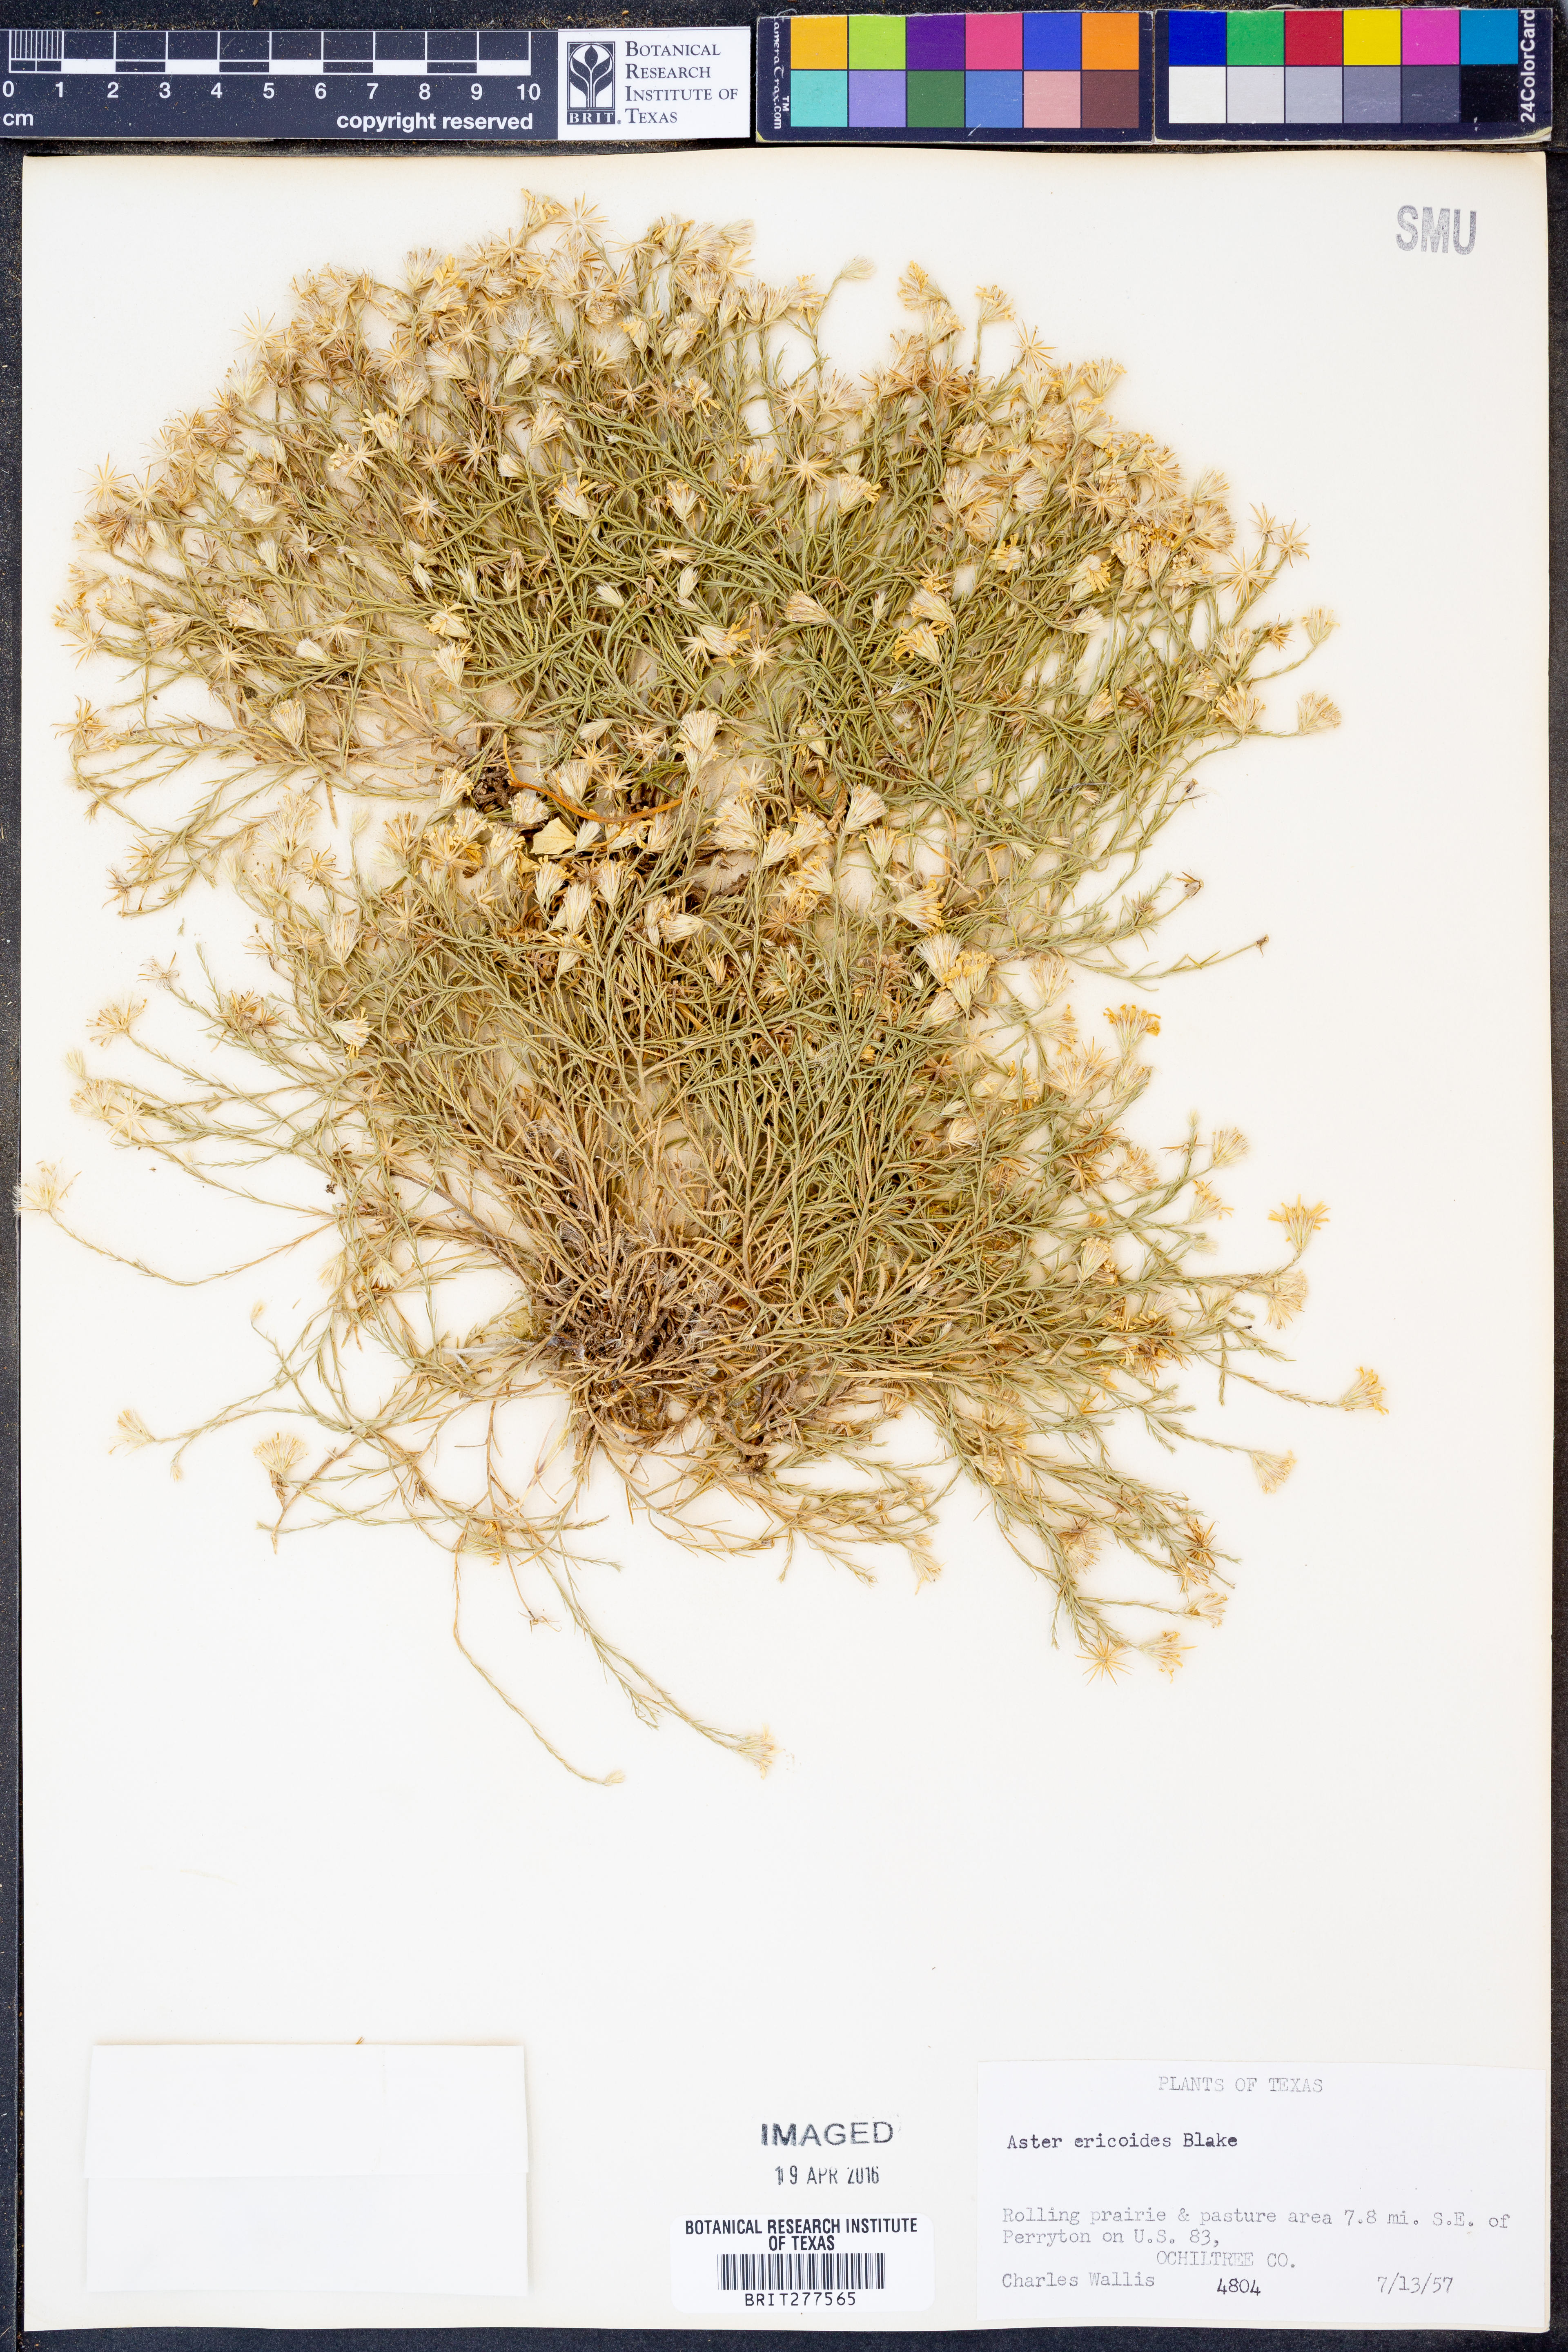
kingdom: Plantae
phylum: Tracheophyta
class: Magnoliopsida
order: Asterales
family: Asteraceae
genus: Symphyotrichum
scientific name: Symphyotrichum ericoides
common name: Heath aster
